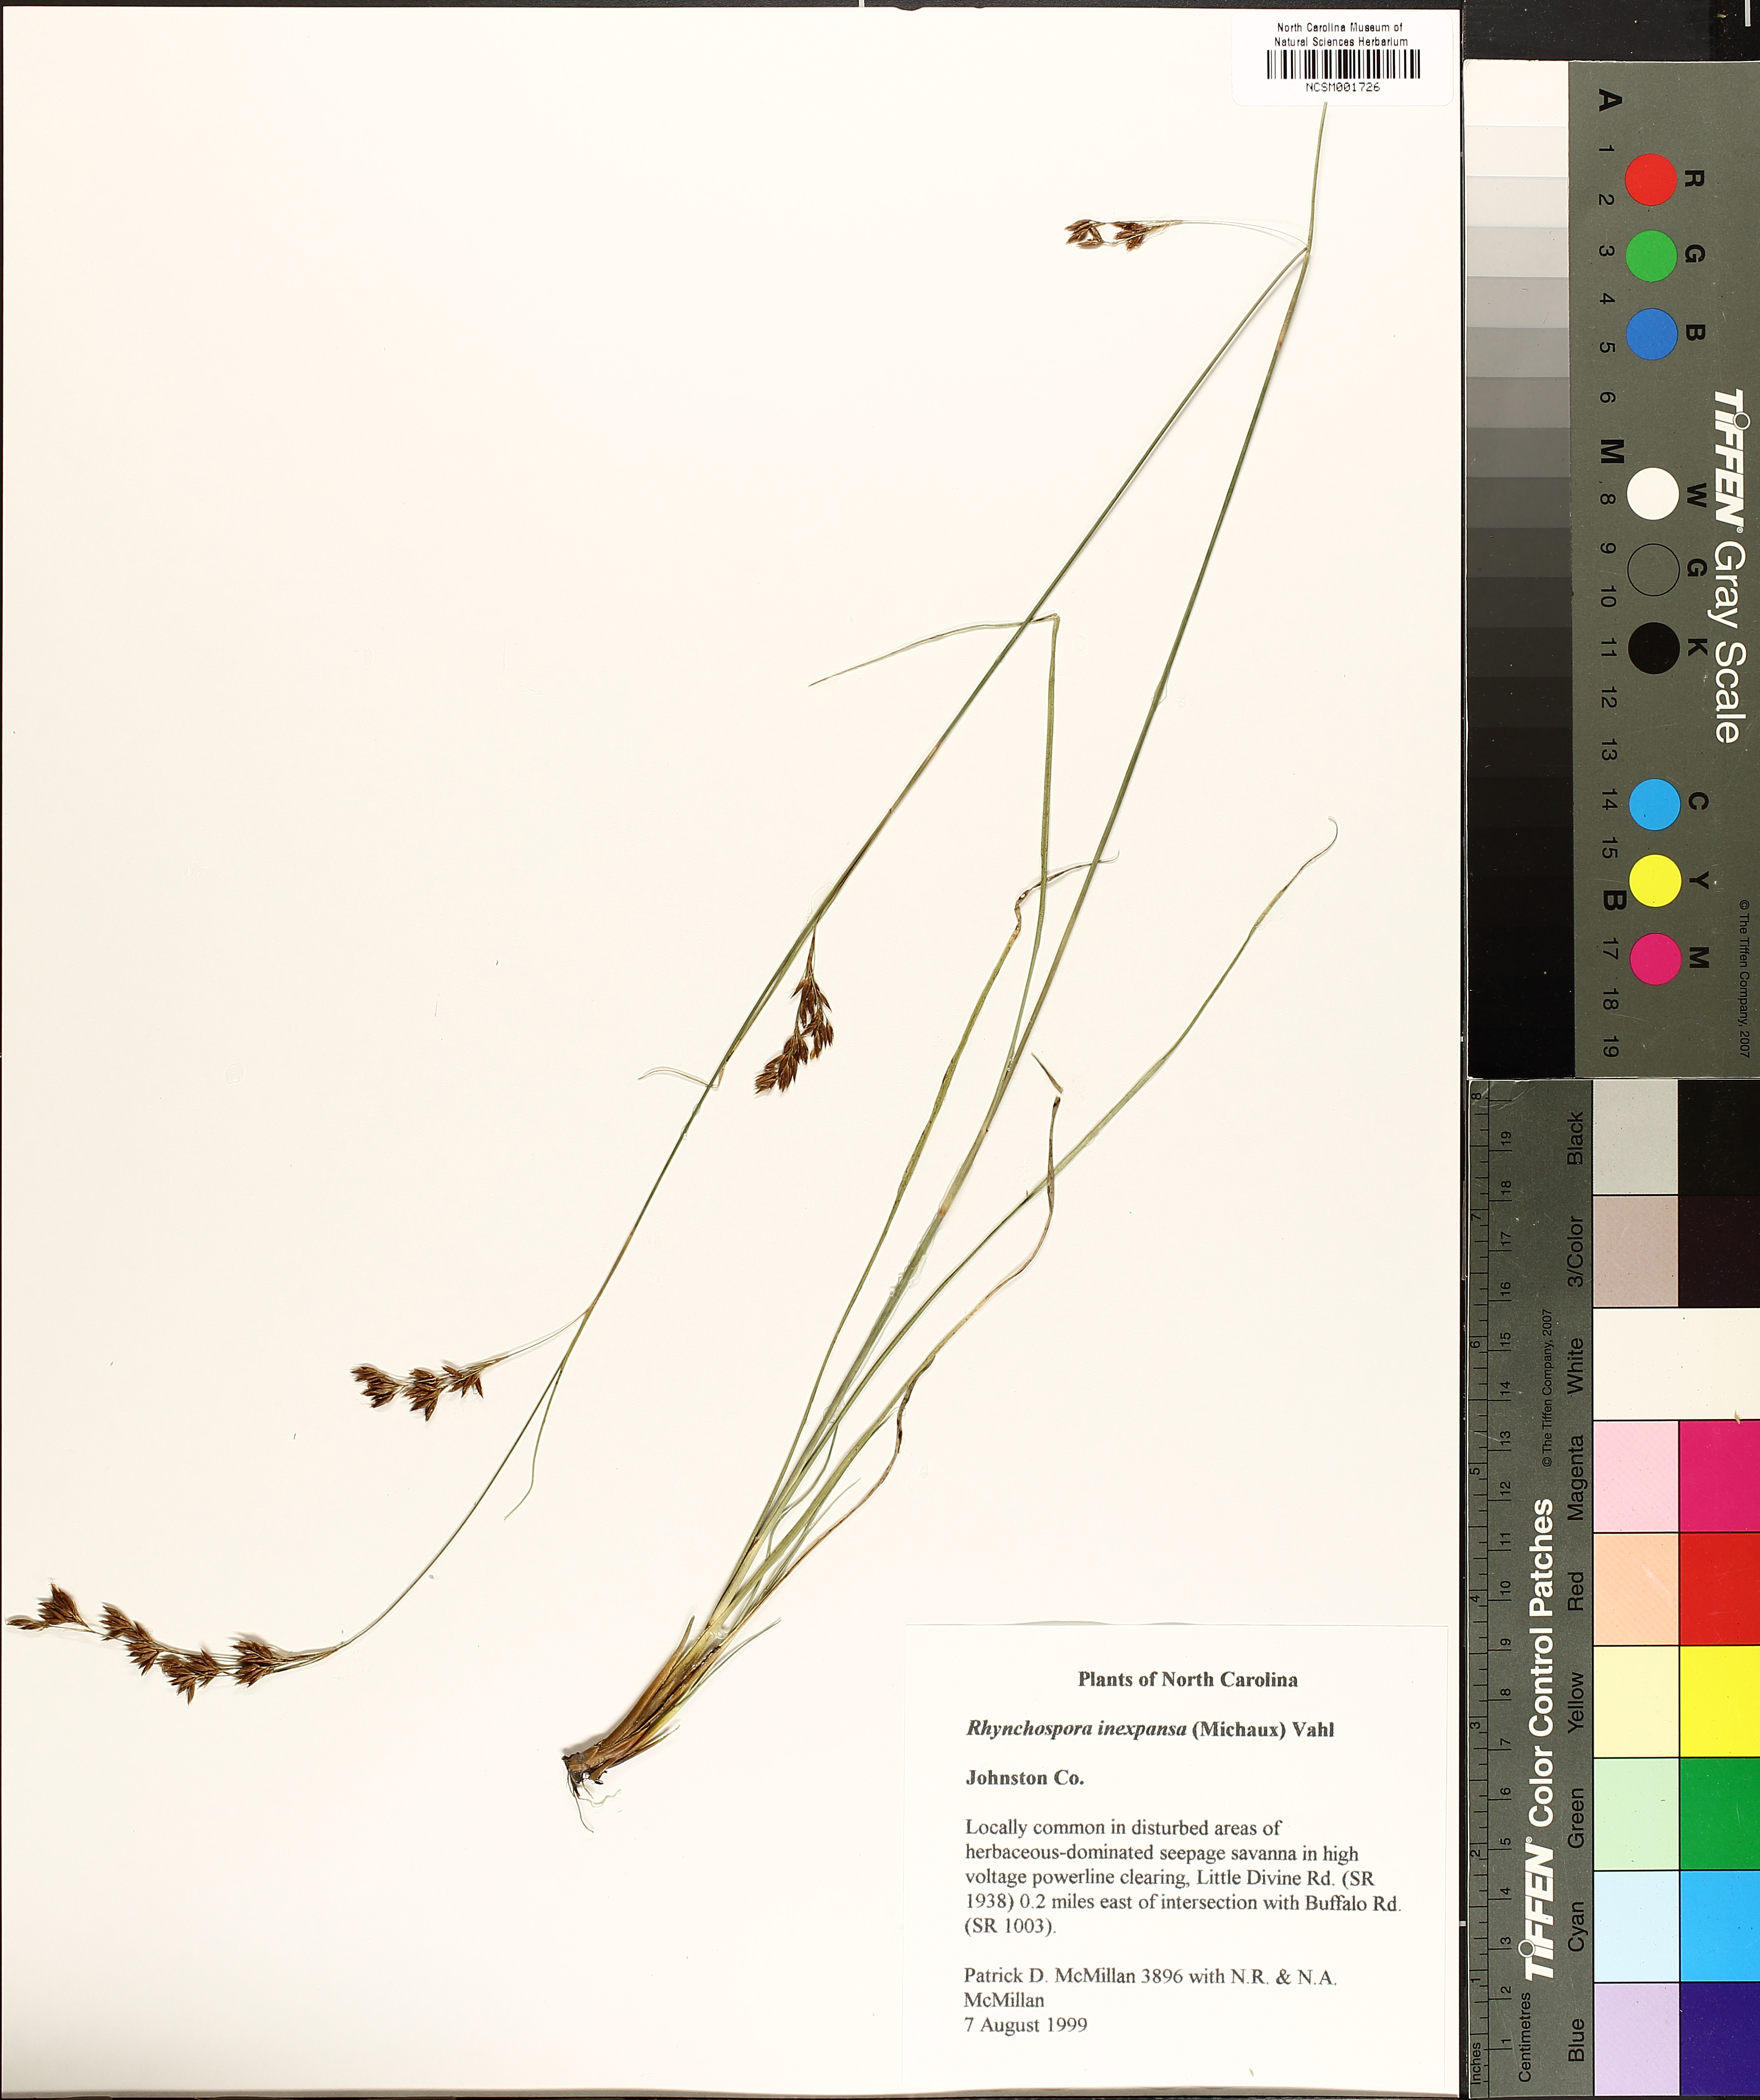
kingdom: Plantae
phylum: Tracheophyta
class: Liliopsida
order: Poales
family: Cyperaceae
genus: Rhynchospora
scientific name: Rhynchospora inexpansa
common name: Nodding beaksedge
